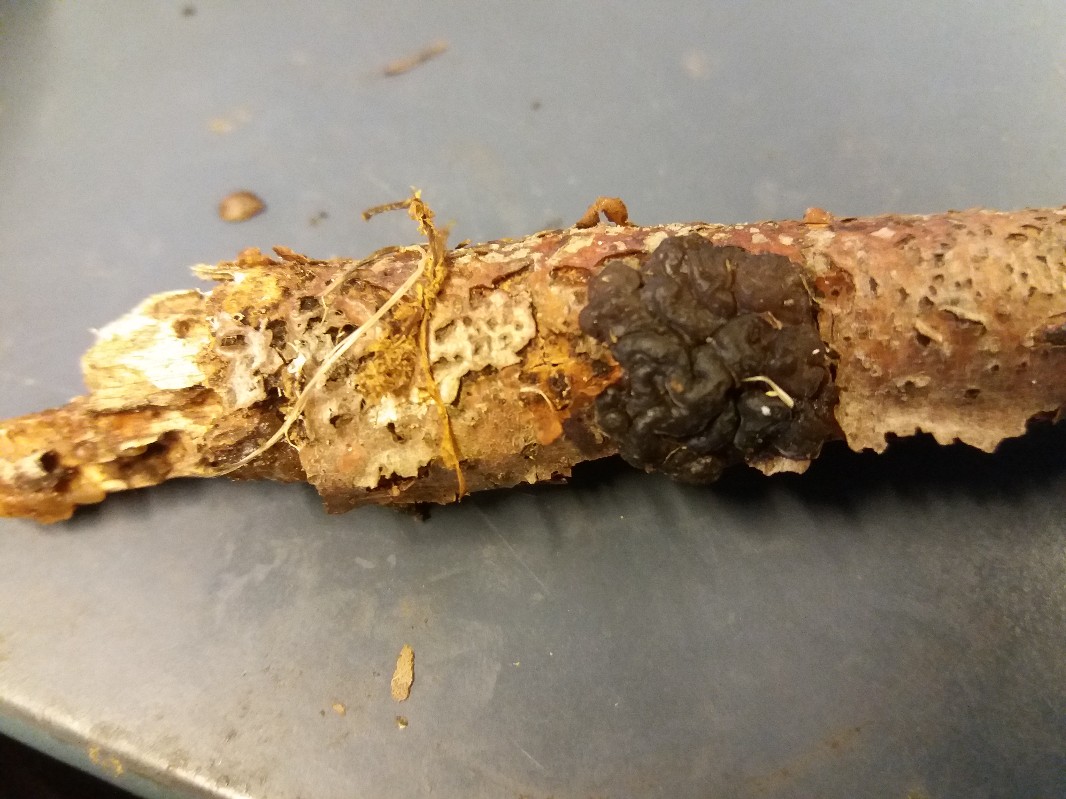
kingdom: Fungi
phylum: Ascomycota
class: Leotiomycetes
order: Helotiales
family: Gelatinodiscaceae
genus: Ascotremella
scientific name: Ascotremella faginea
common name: hjerne-bævreskive
